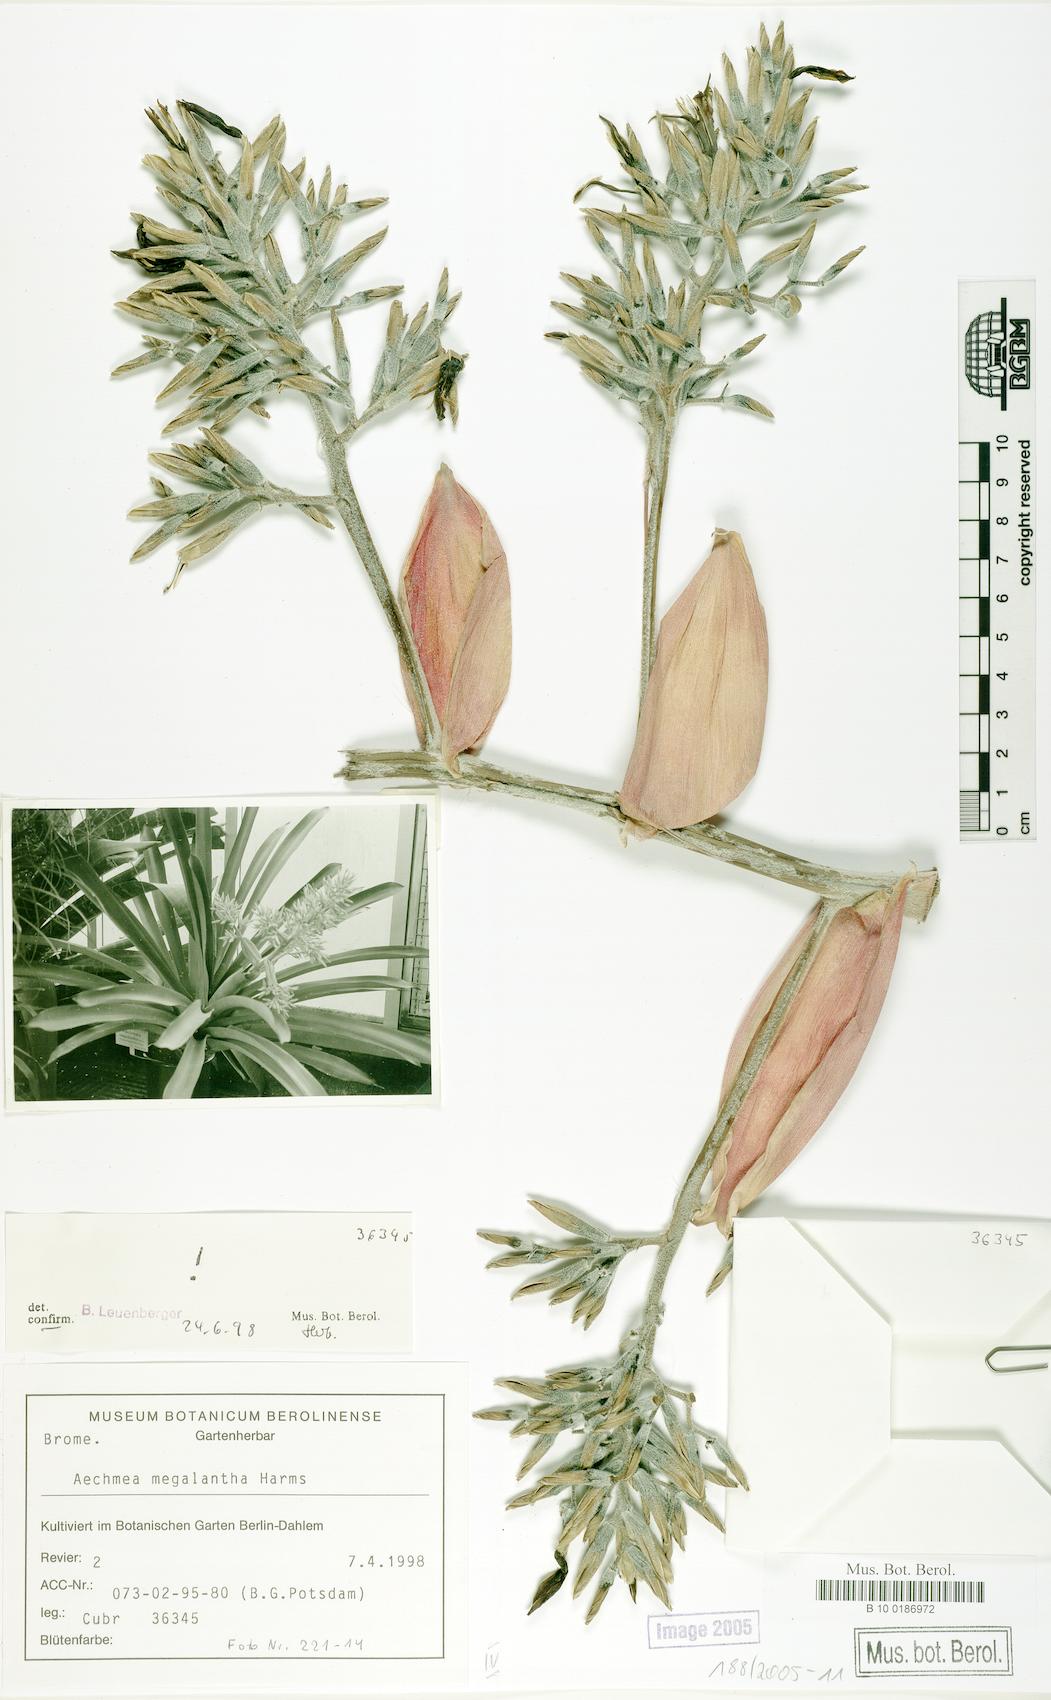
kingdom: Plantae
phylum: Tracheophyta
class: Liliopsida
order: Poales
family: Bromeliaceae
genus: Aechmea
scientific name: Aechmea costantinii
